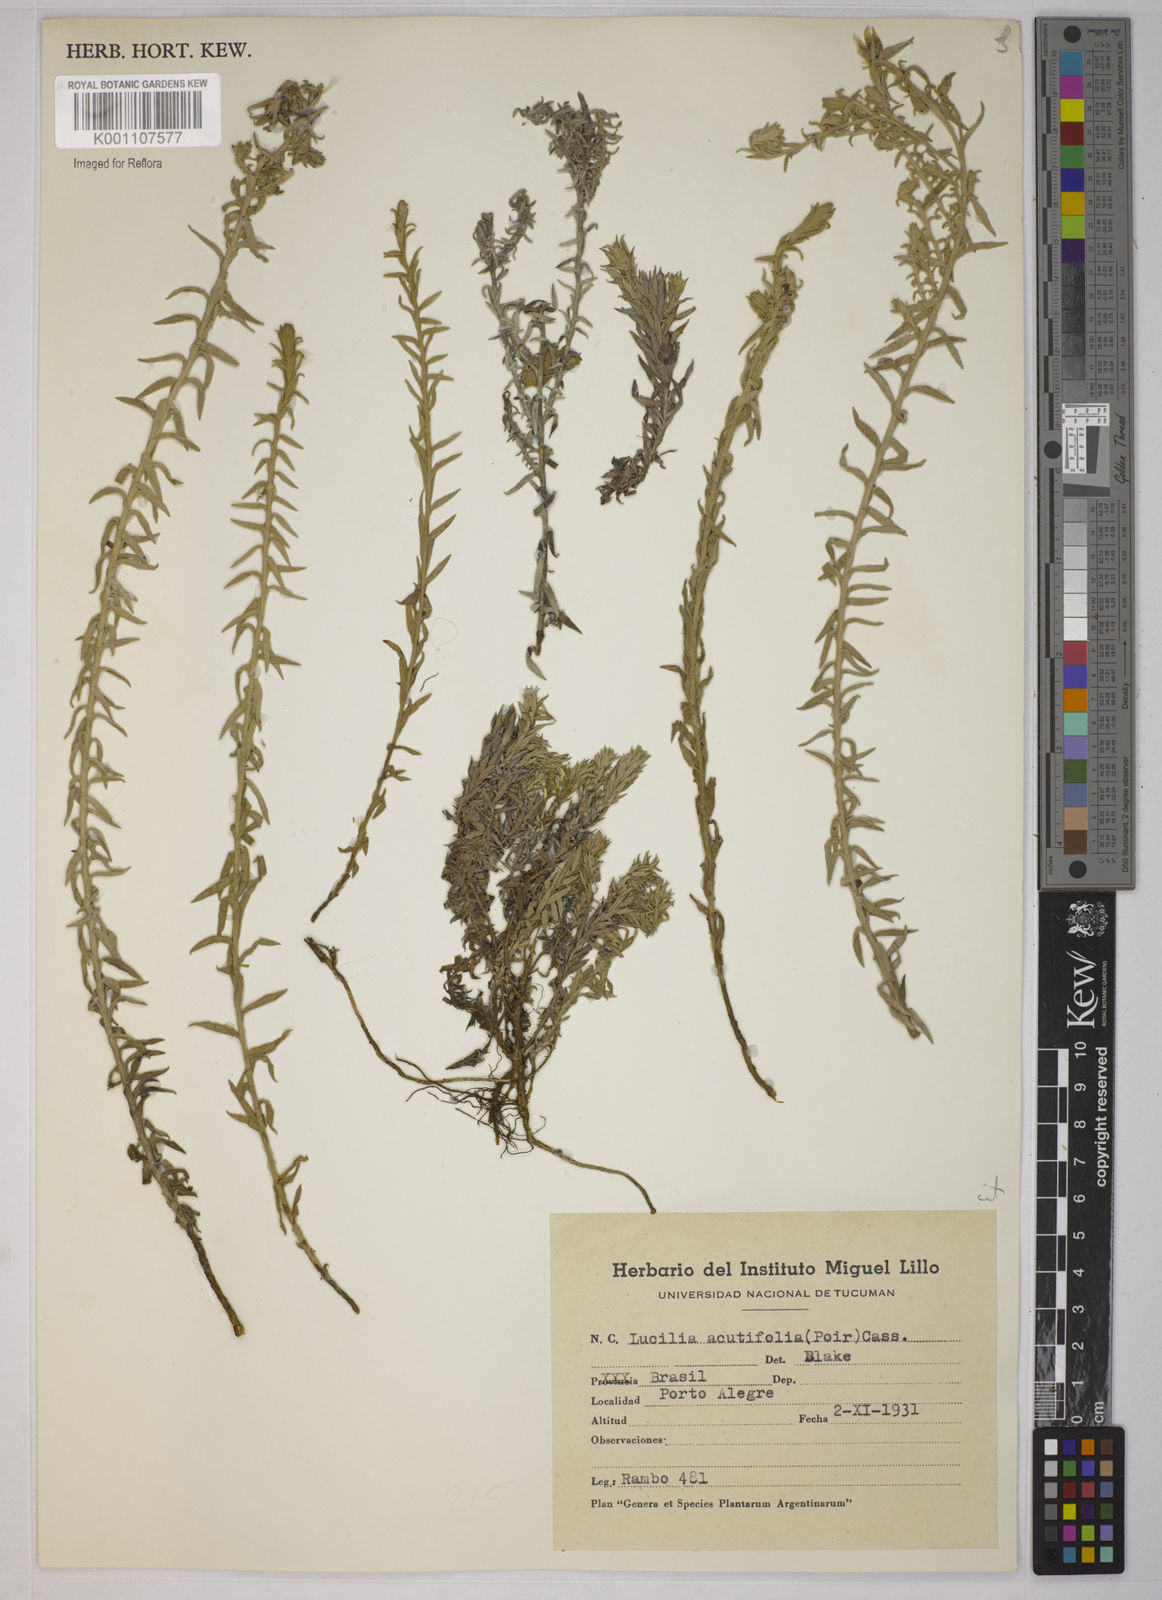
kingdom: Plantae
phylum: Tracheophyta
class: Magnoliopsida
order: Asterales
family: Asteraceae
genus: Lucilia
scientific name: Lucilia acutifolia
